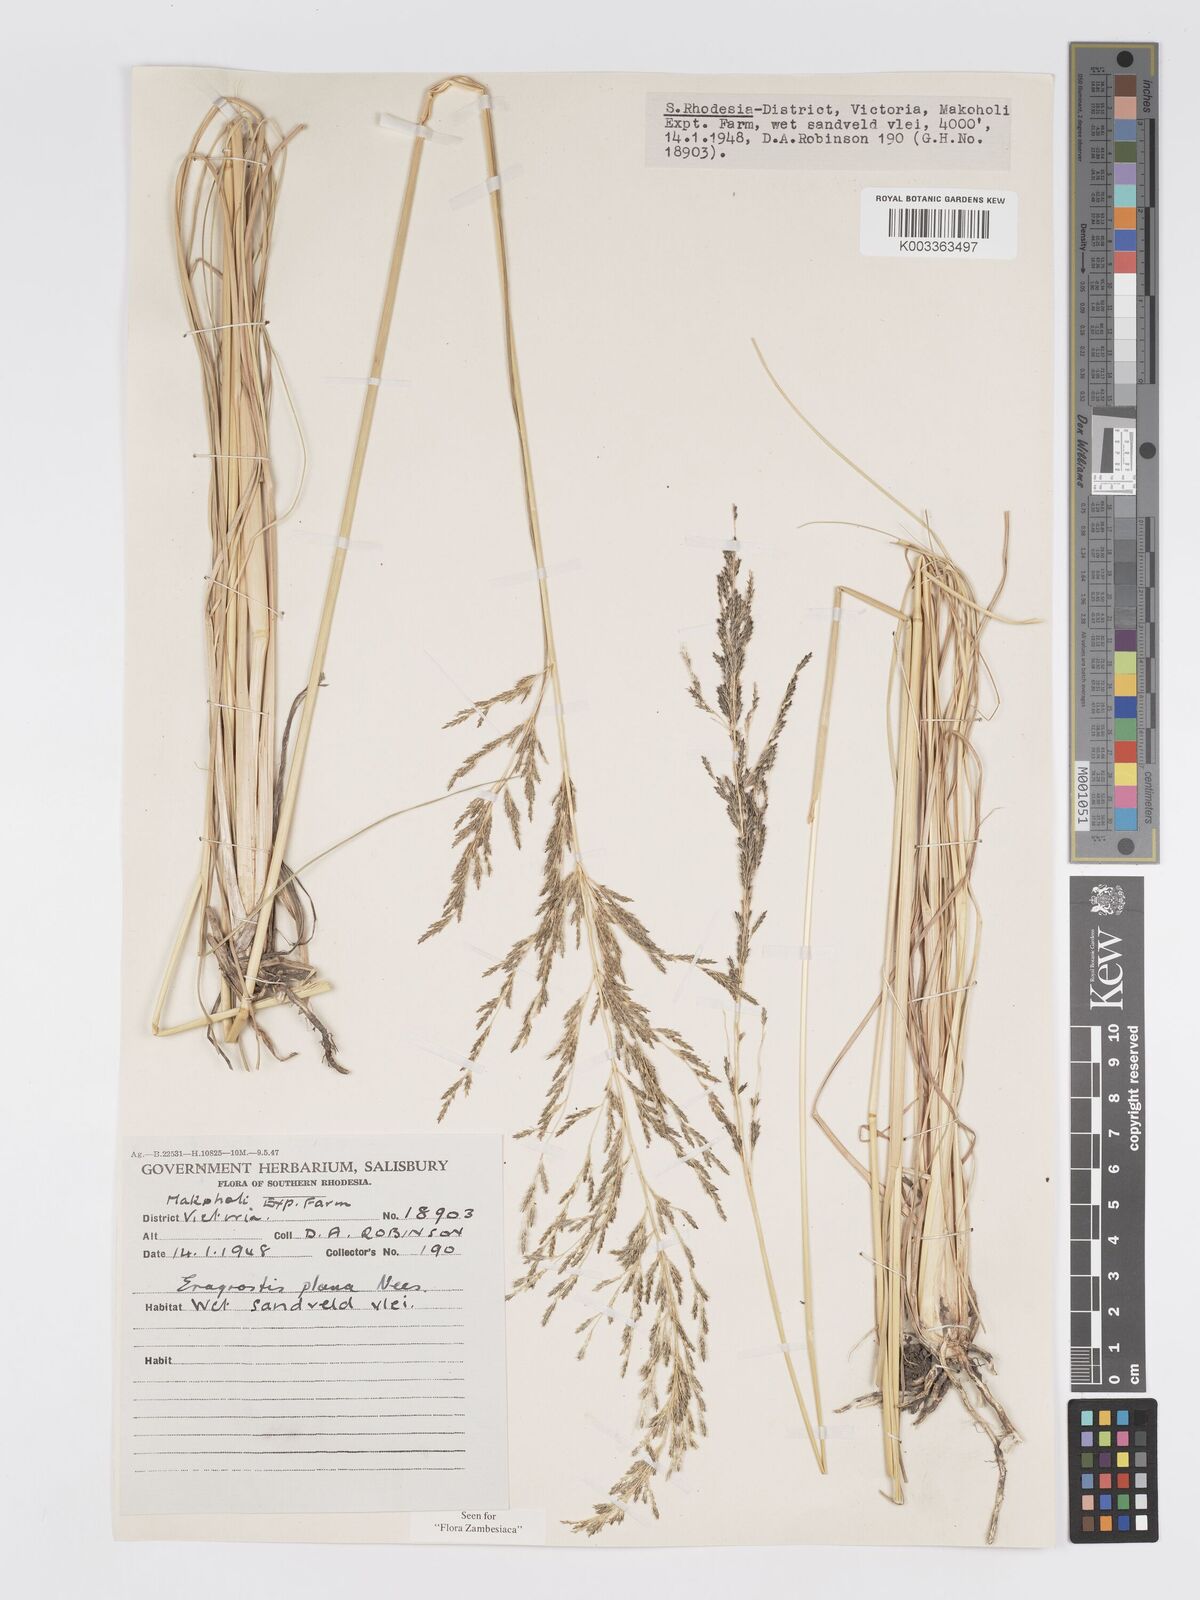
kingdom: Plantae
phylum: Tracheophyta
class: Liliopsida
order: Poales
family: Poaceae
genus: Eragrostis
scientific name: Eragrostis plana
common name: South african lovegrass
